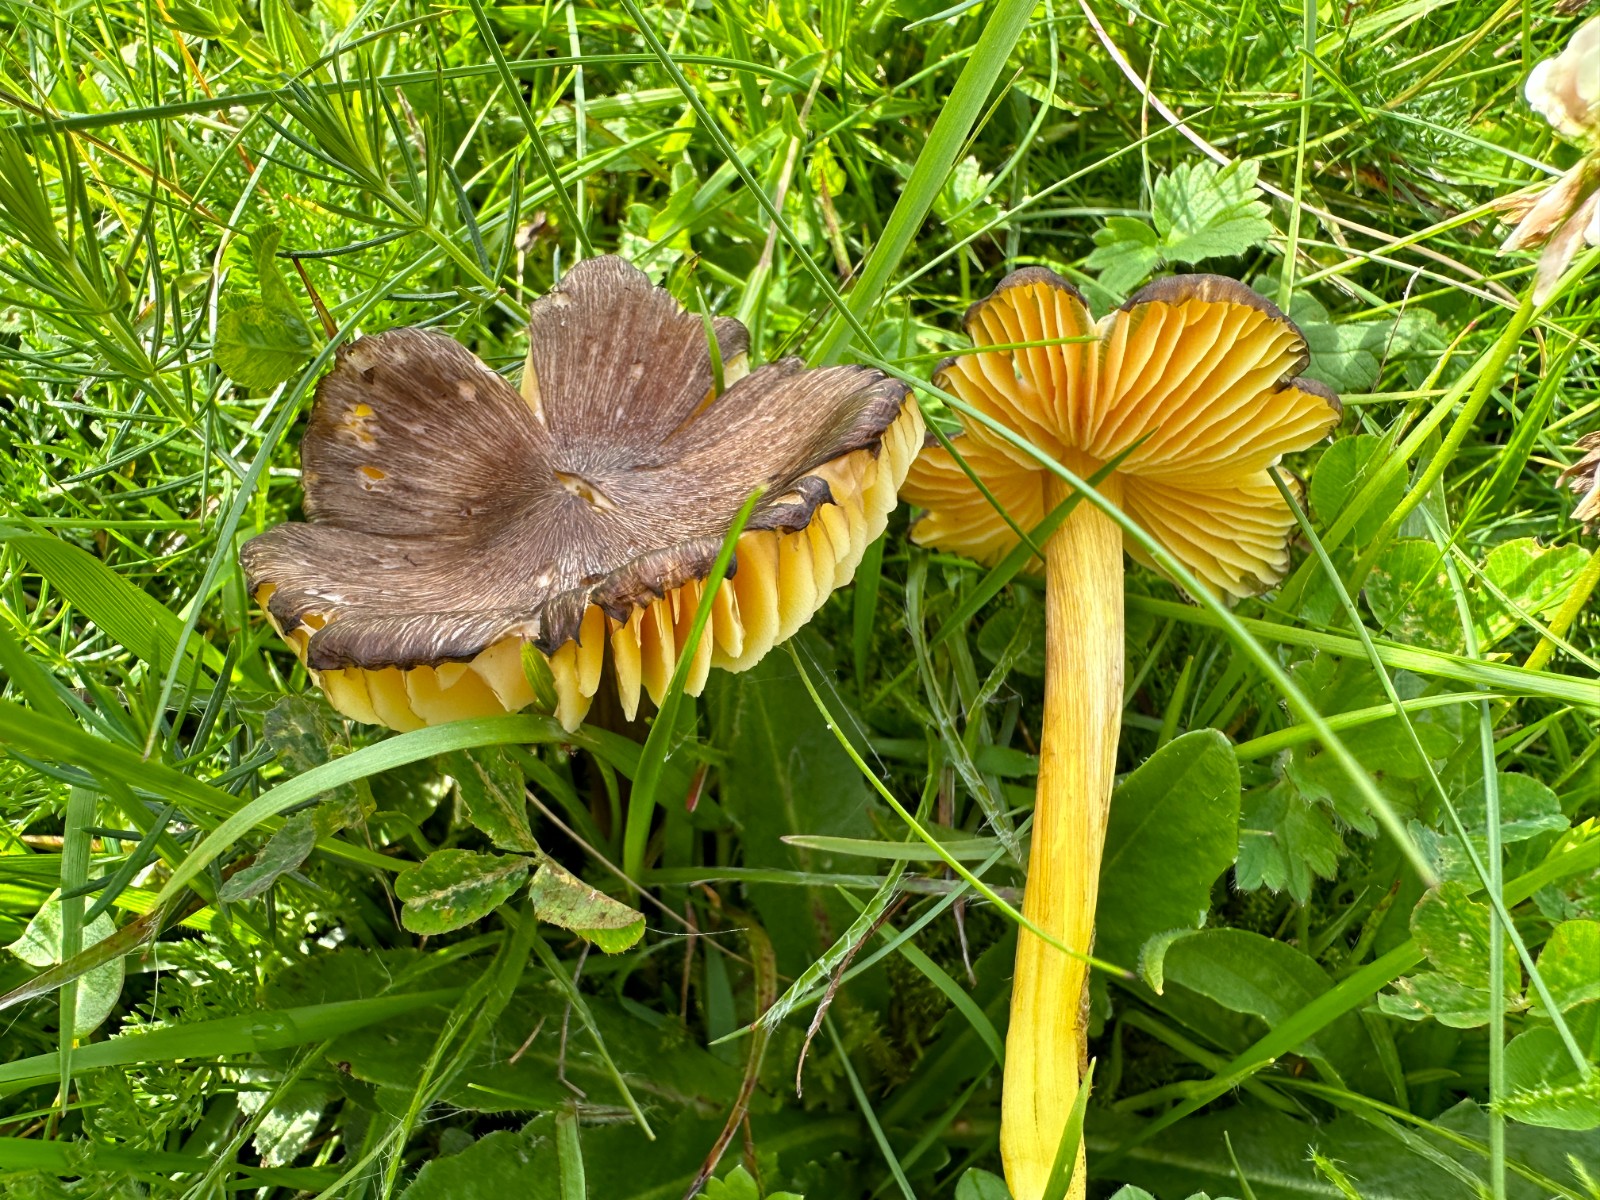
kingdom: Fungi
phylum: Basidiomycota
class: Agaricomycetes
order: Agaricales
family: Hygrophoraceae
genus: Hygrocybe
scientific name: Hygrocybe spadicea
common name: daddelbrun vokshat
